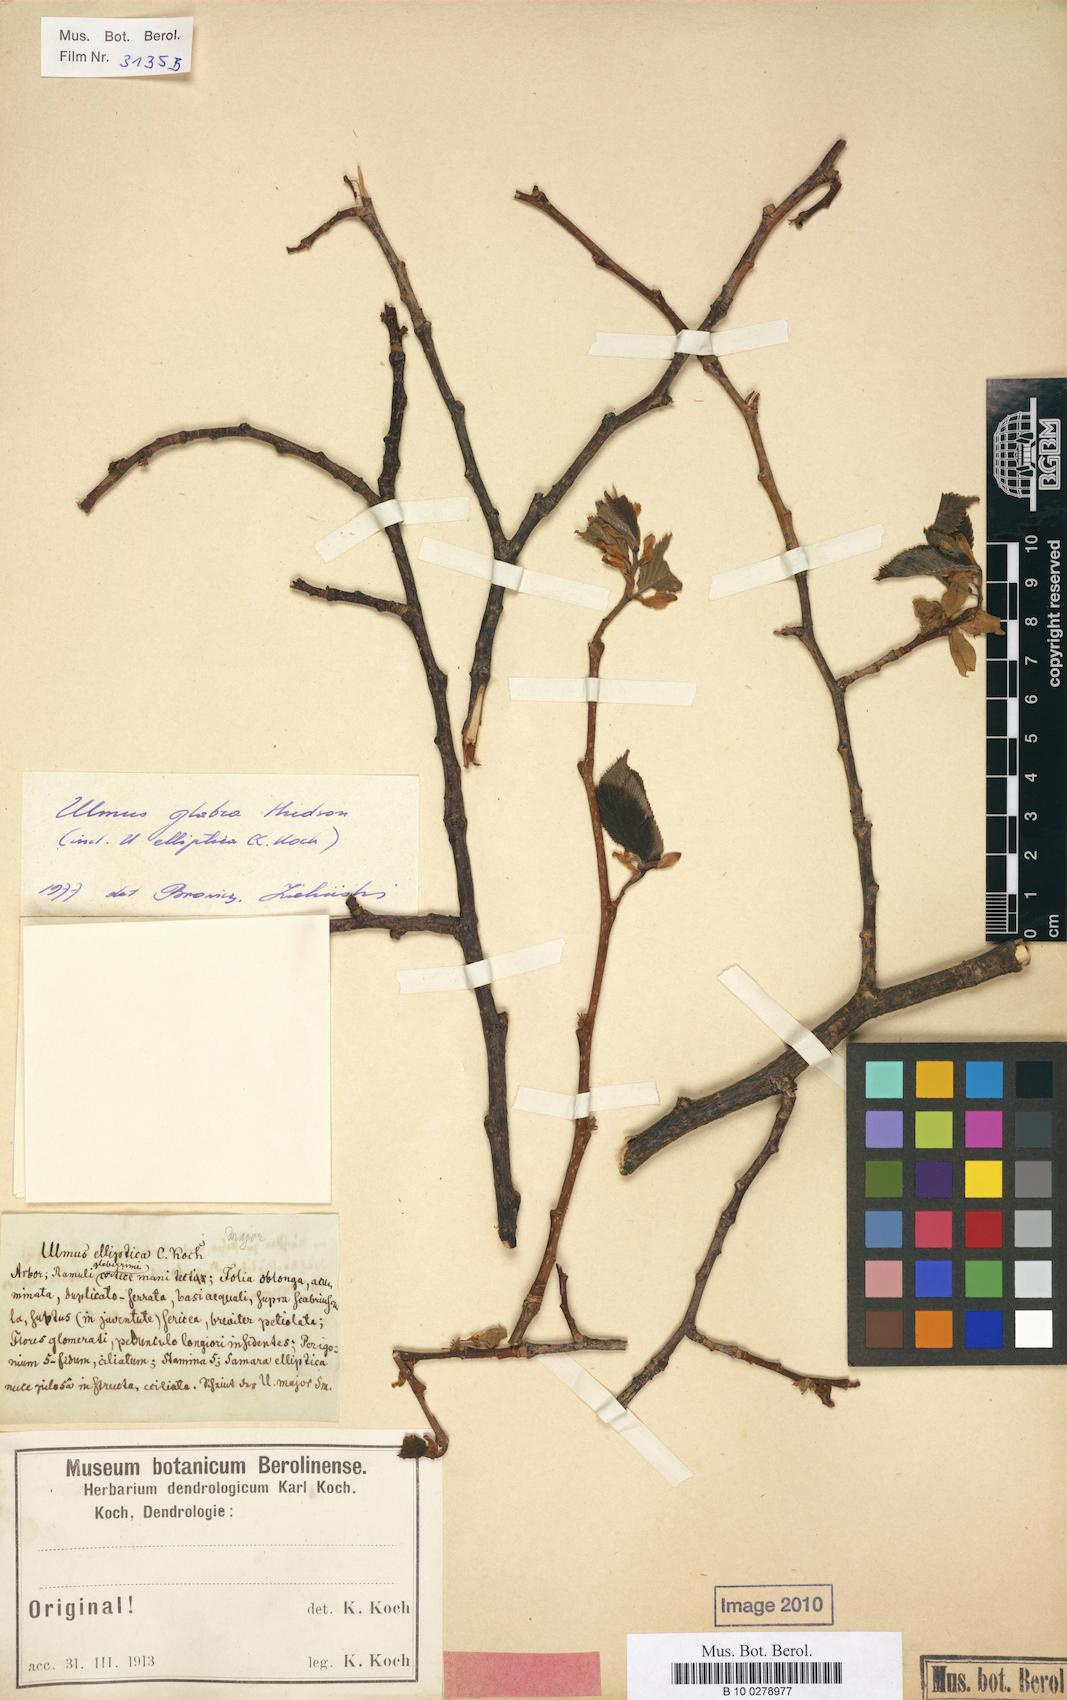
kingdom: Plantae
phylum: Tracheophyta
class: Magnoliopsida
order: Rosales
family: Ulmaceae
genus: Ulmus
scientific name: Ulmus glabra
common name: Wych elm
